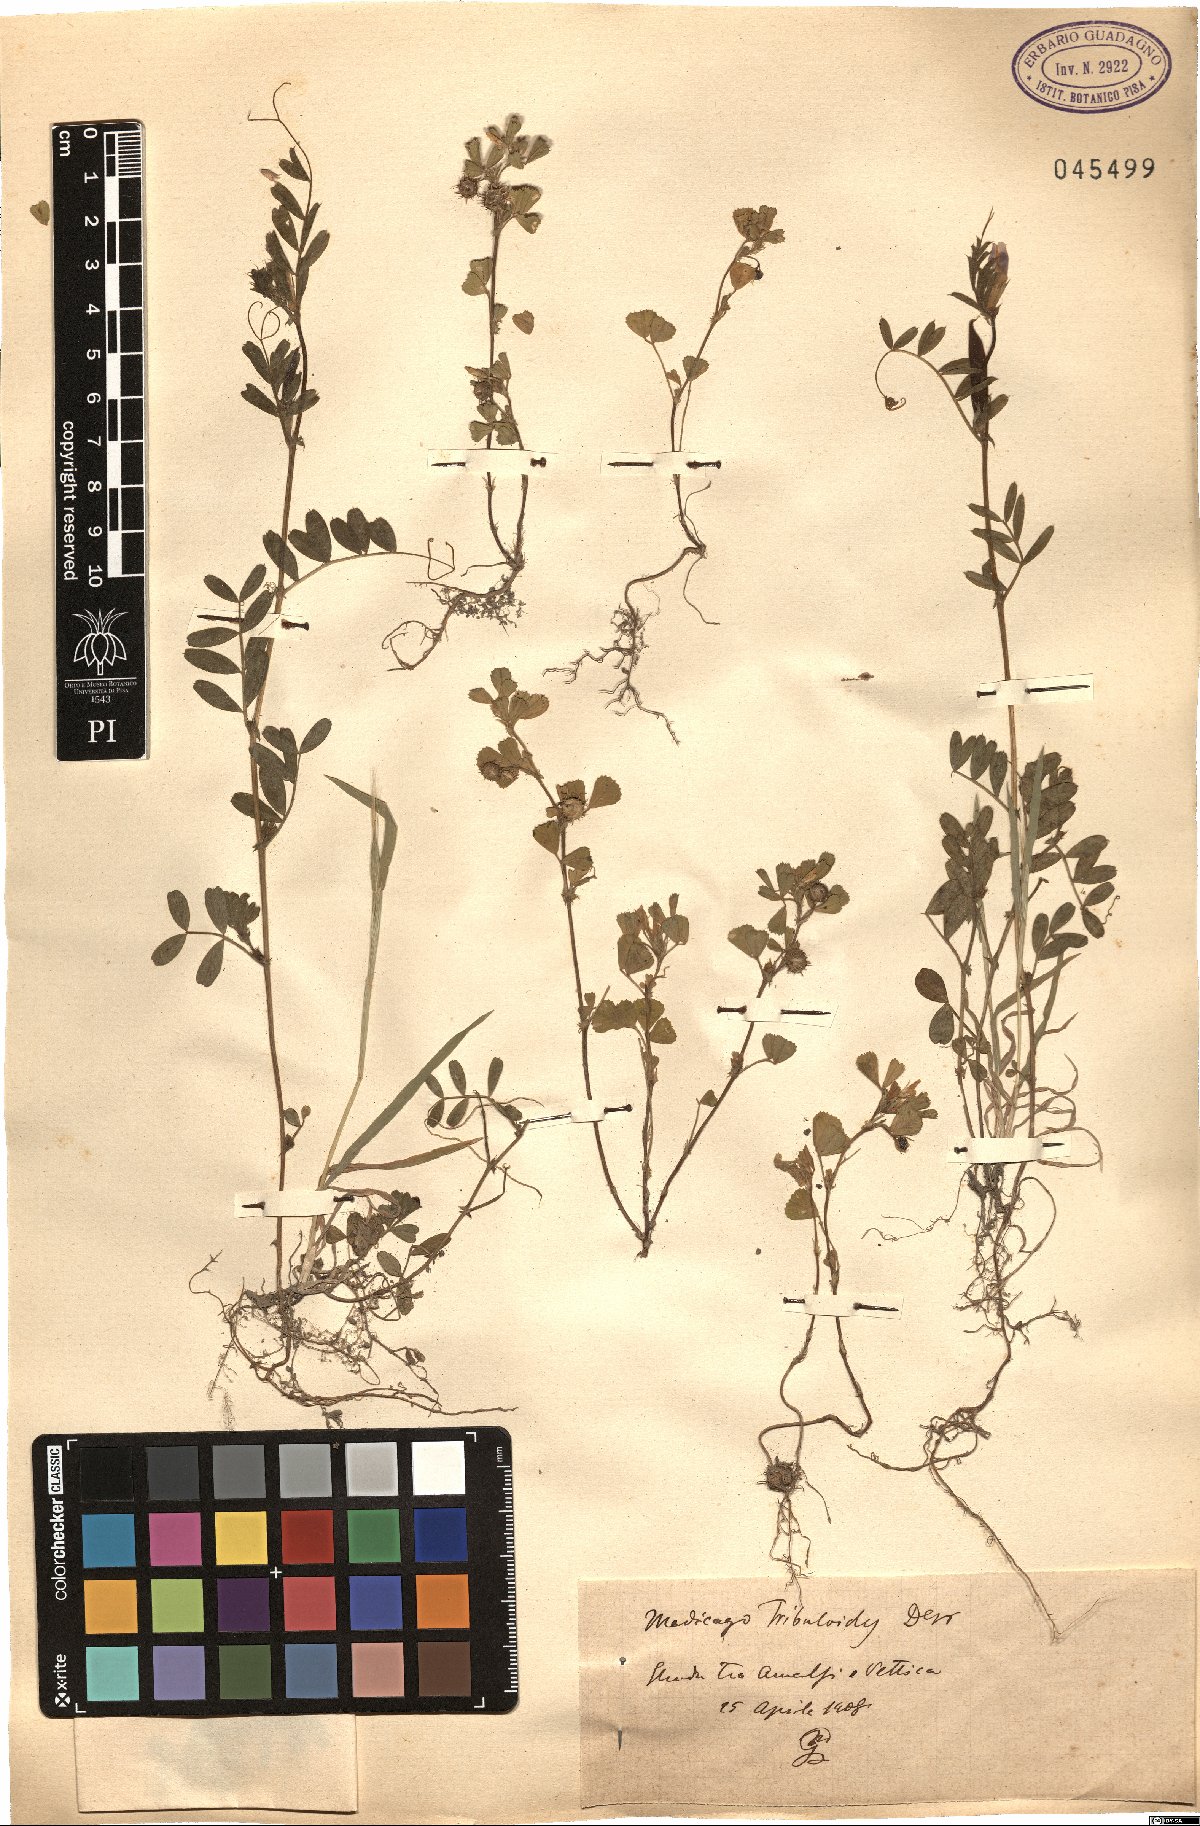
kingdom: Plantae
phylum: Tracheophyta
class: Magnoliopsida
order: Fabales
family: Fabaceae
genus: Medicago
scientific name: Medicago truncatula
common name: Strong-spined medick
